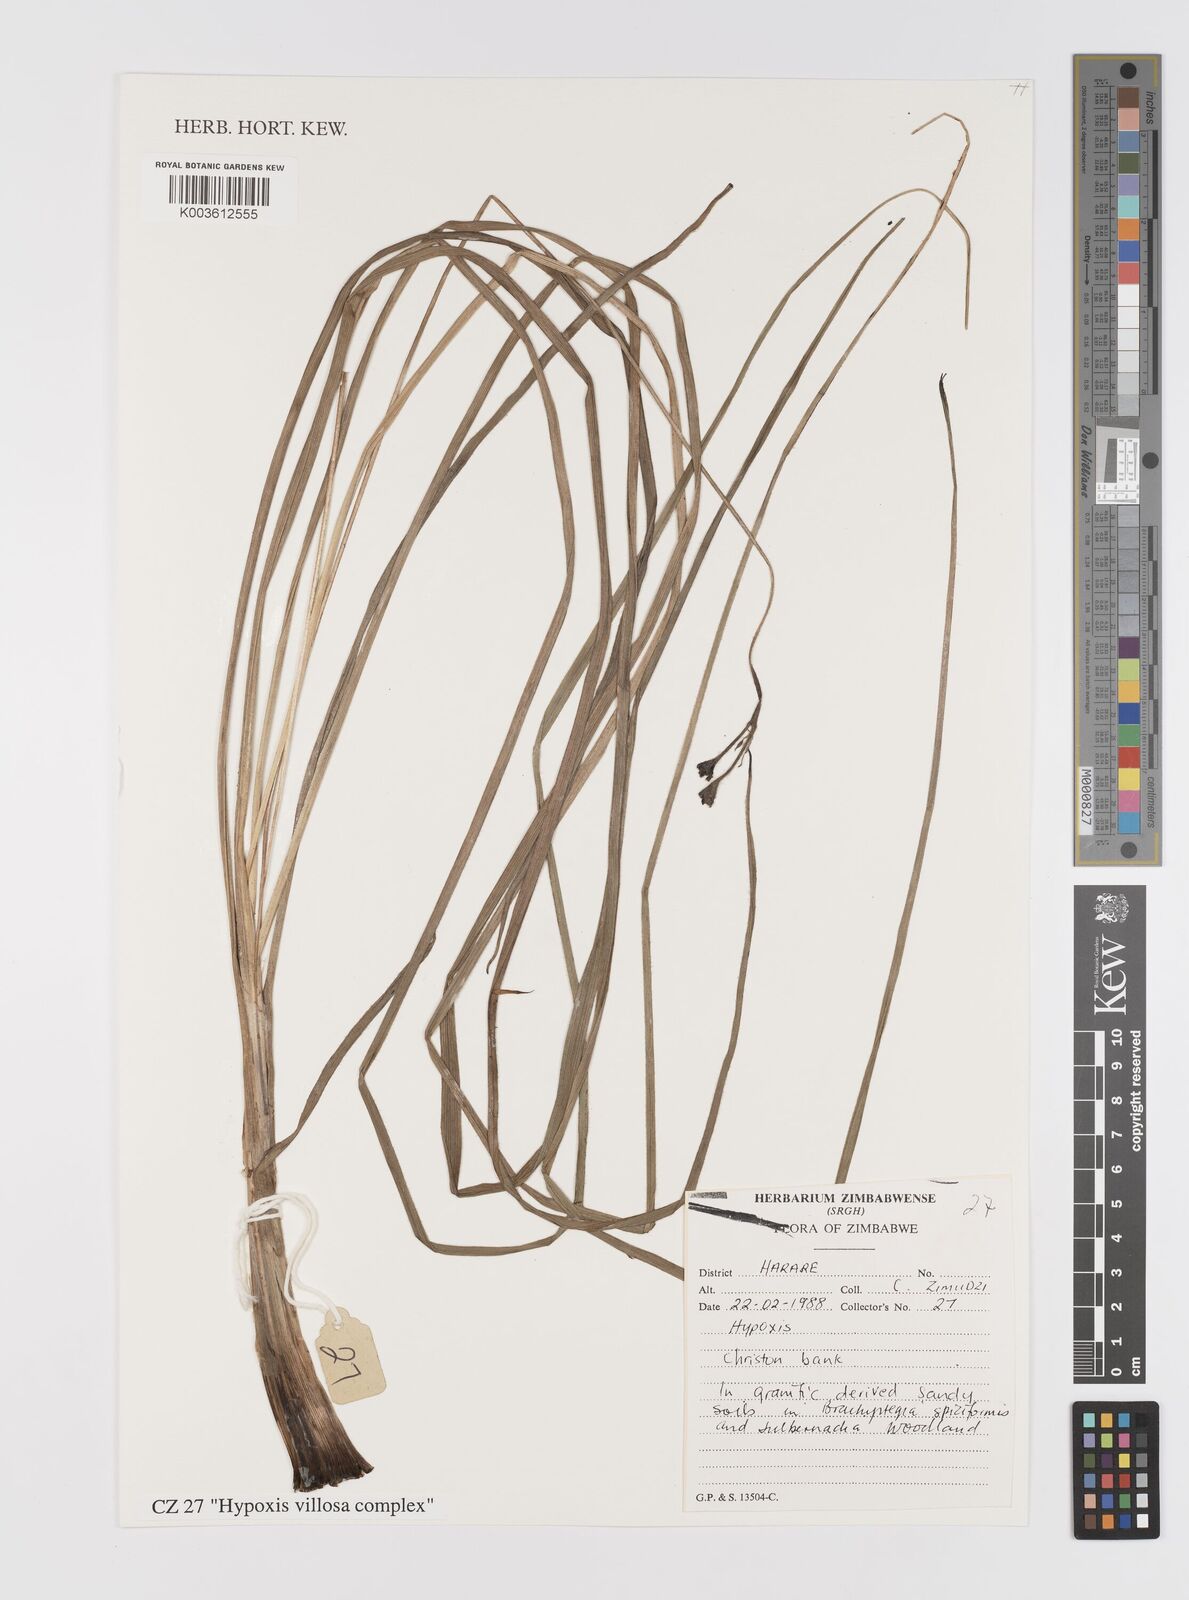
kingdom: Plantae
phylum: Tracheophyta
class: Liliopsida
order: Asparagales
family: Hypoxidaceae
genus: Hypoxis
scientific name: Hypoxis villosa
